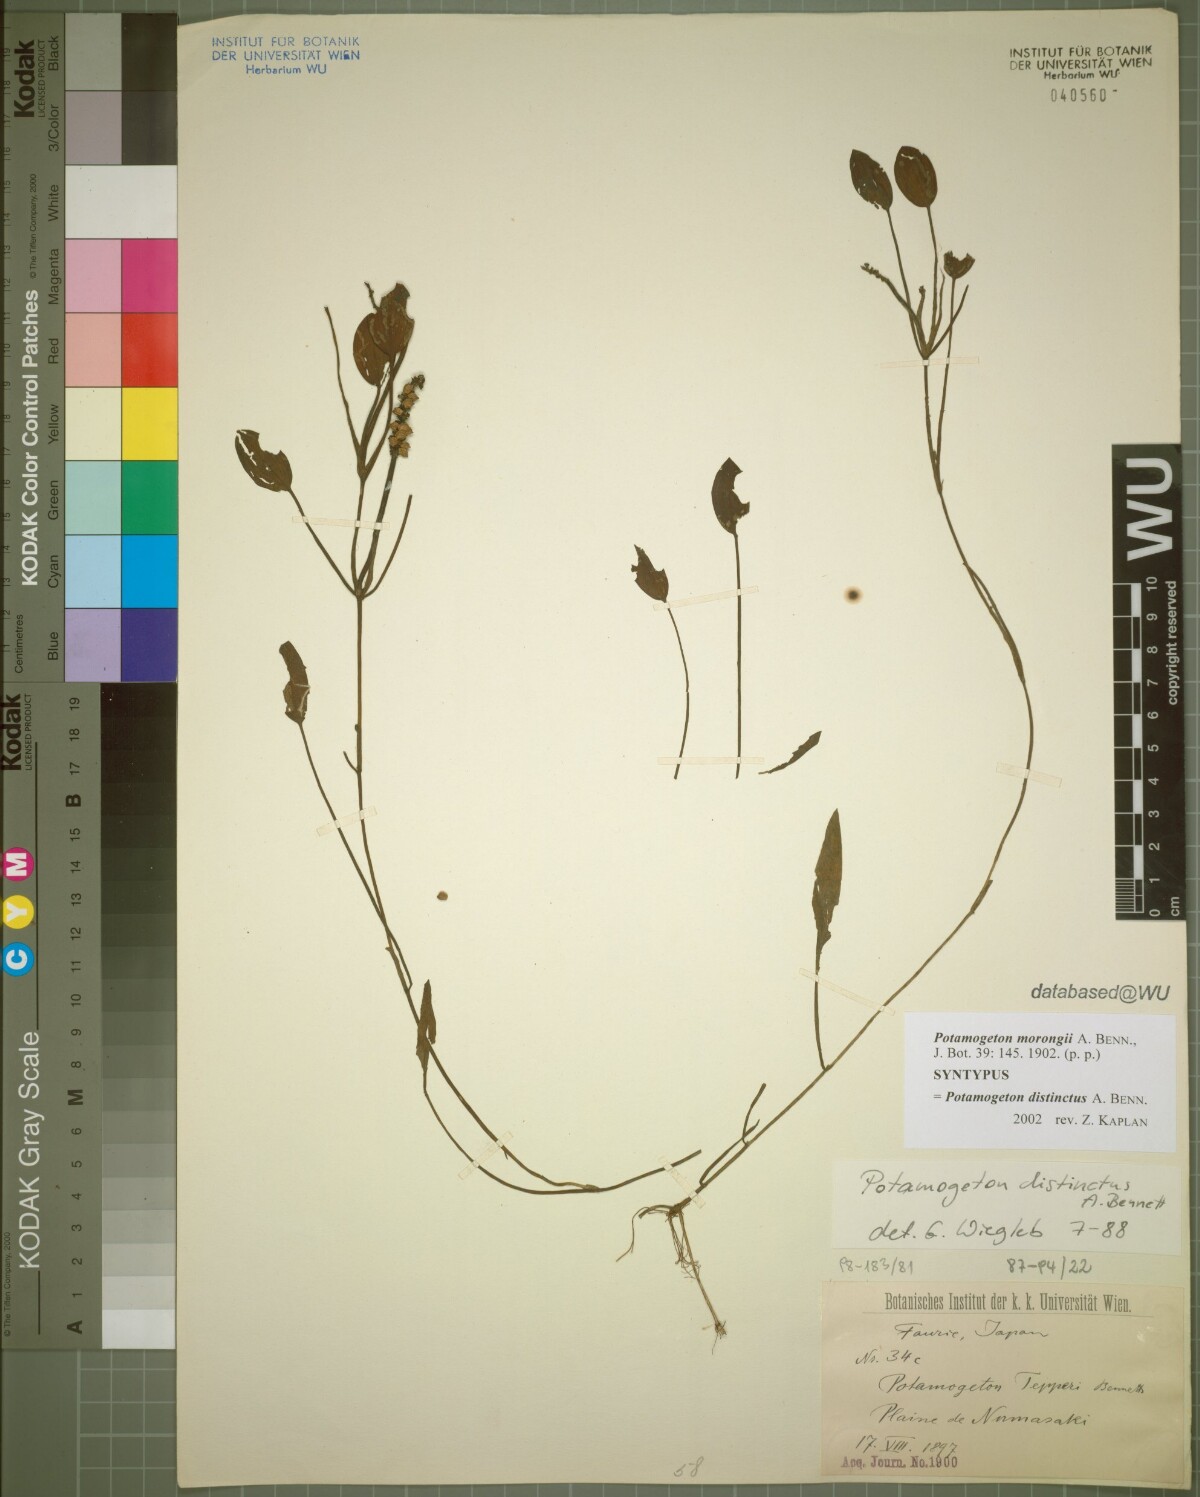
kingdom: Plantae
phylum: Tracheophyta
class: Liliopsida
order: Alismatales
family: Potamogetonaceae
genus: Potamogeton
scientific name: Potamogeton natans
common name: Broad-leaved pondweed
